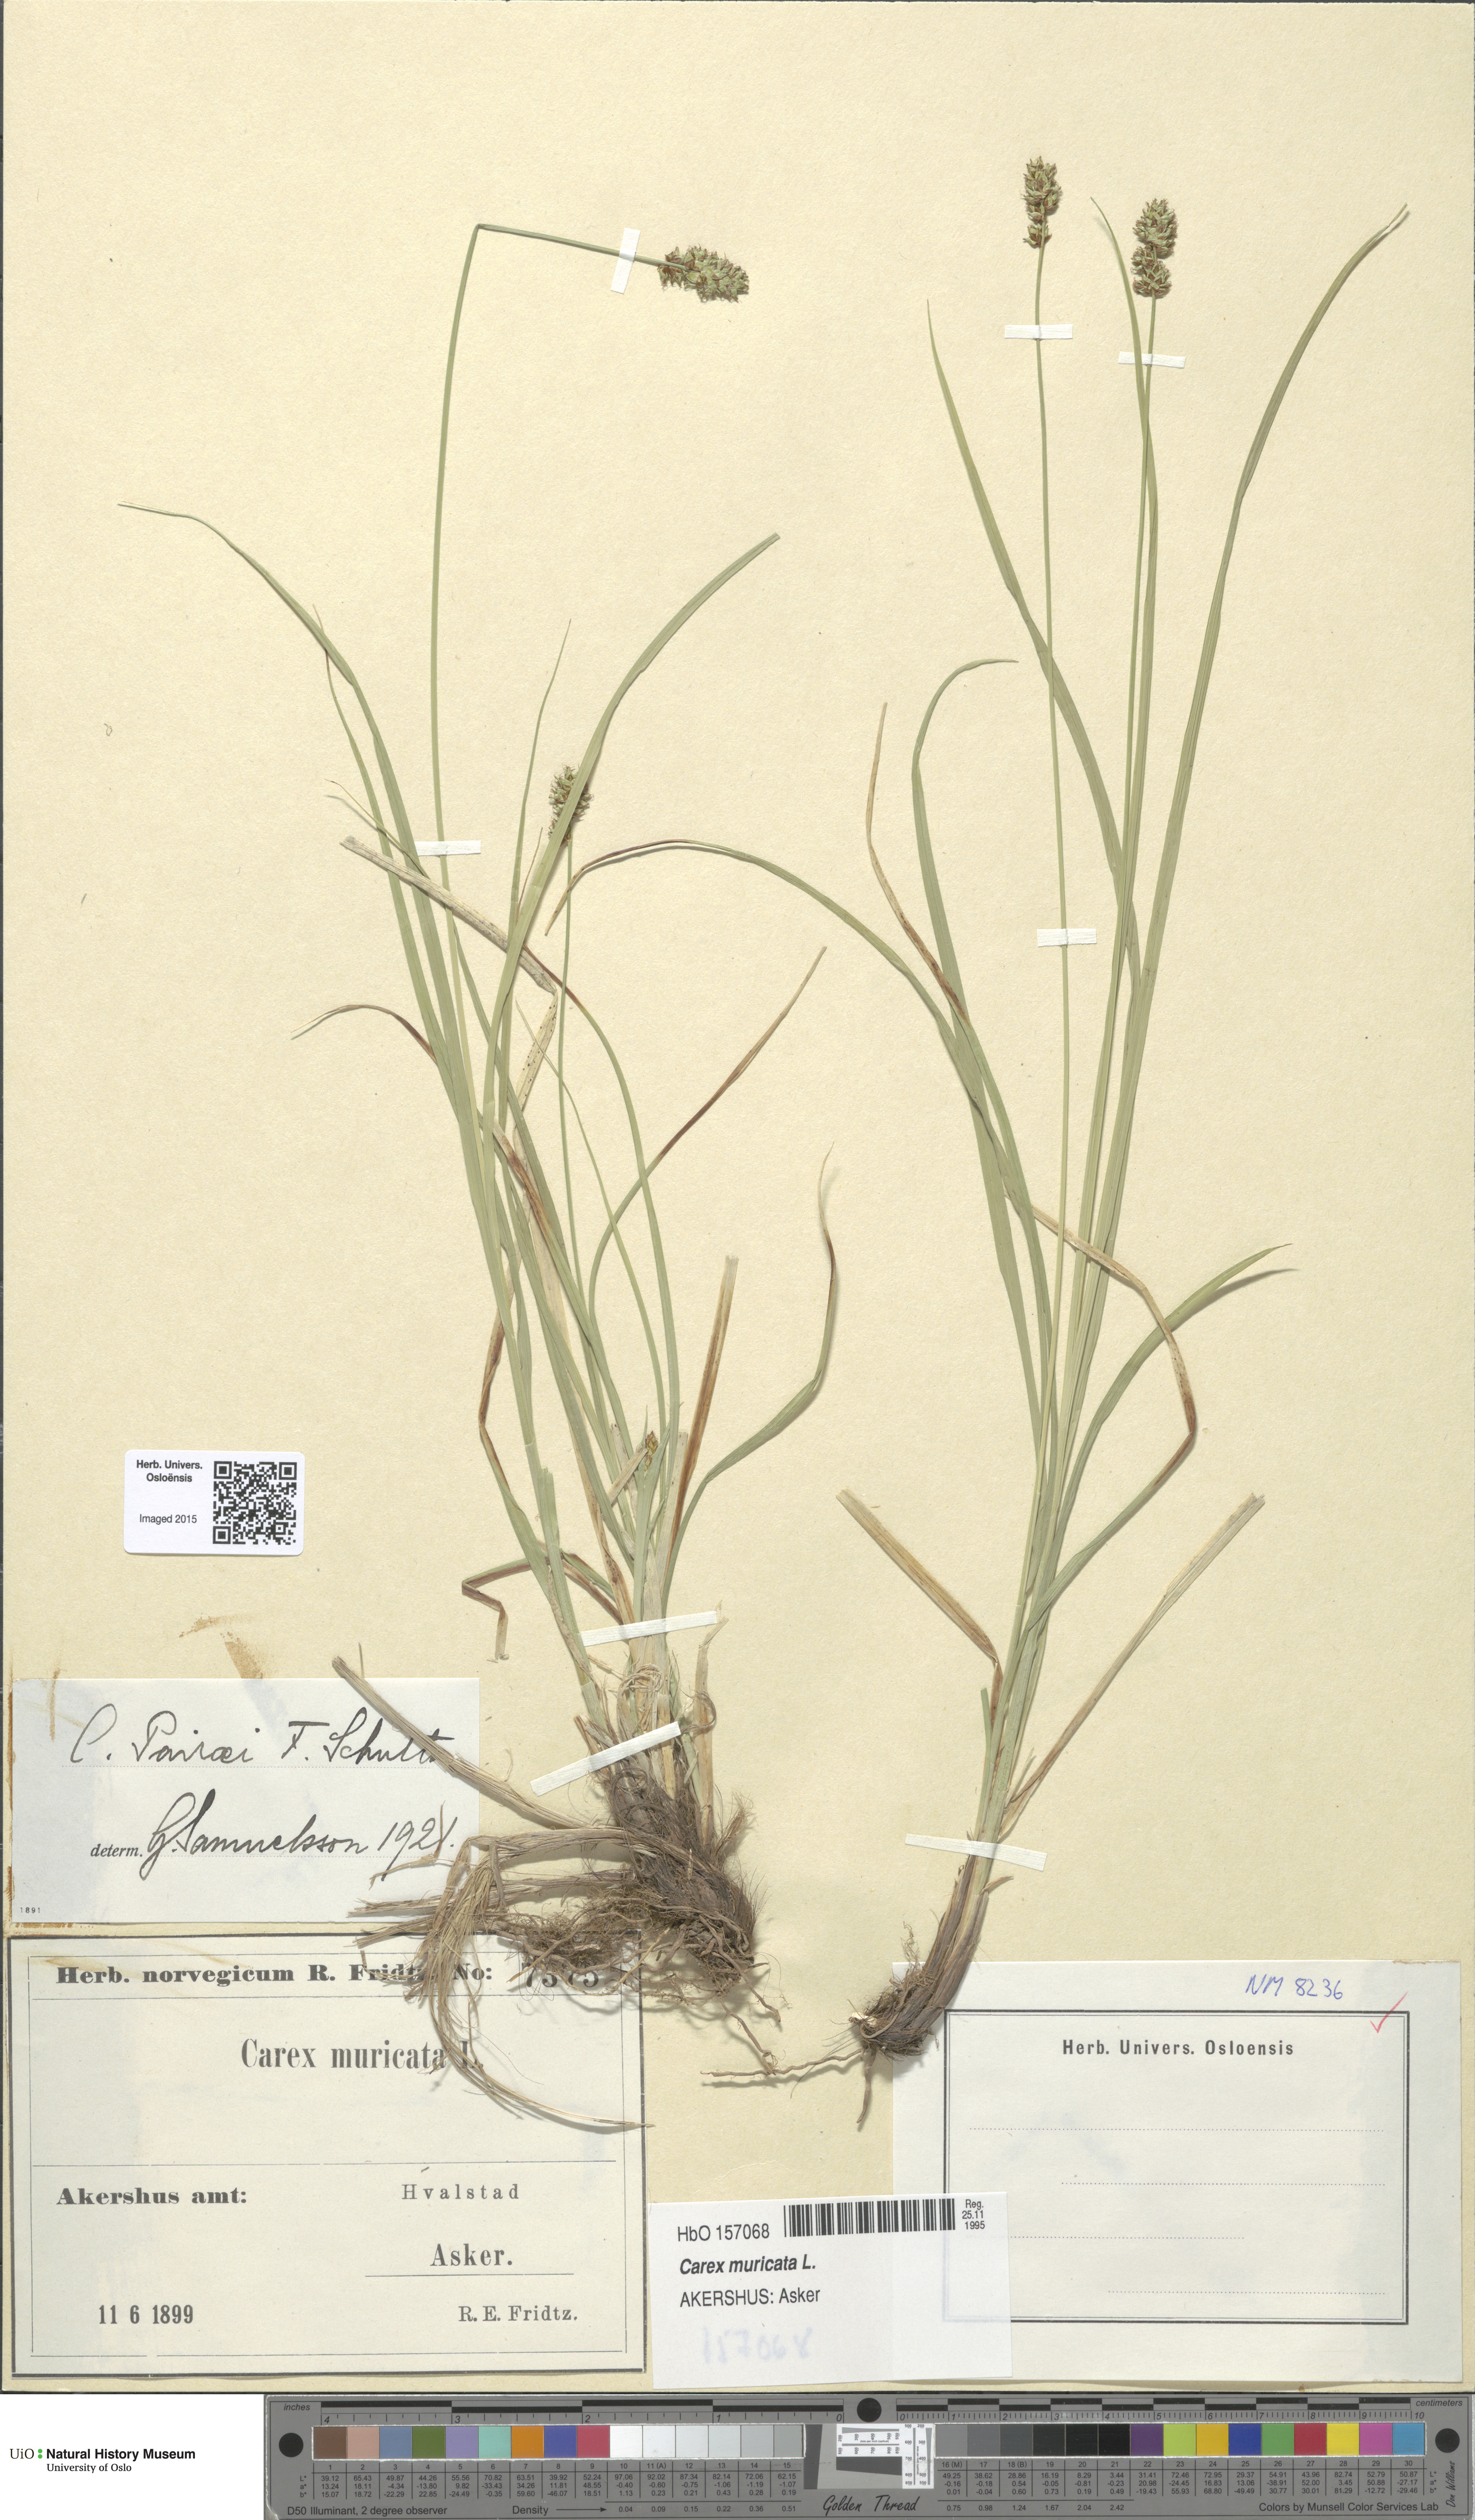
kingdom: Plantae
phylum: Tracheophyta
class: Liliopsida
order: Poales
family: Cyperaceae
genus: Carex
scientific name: Carex pairae
